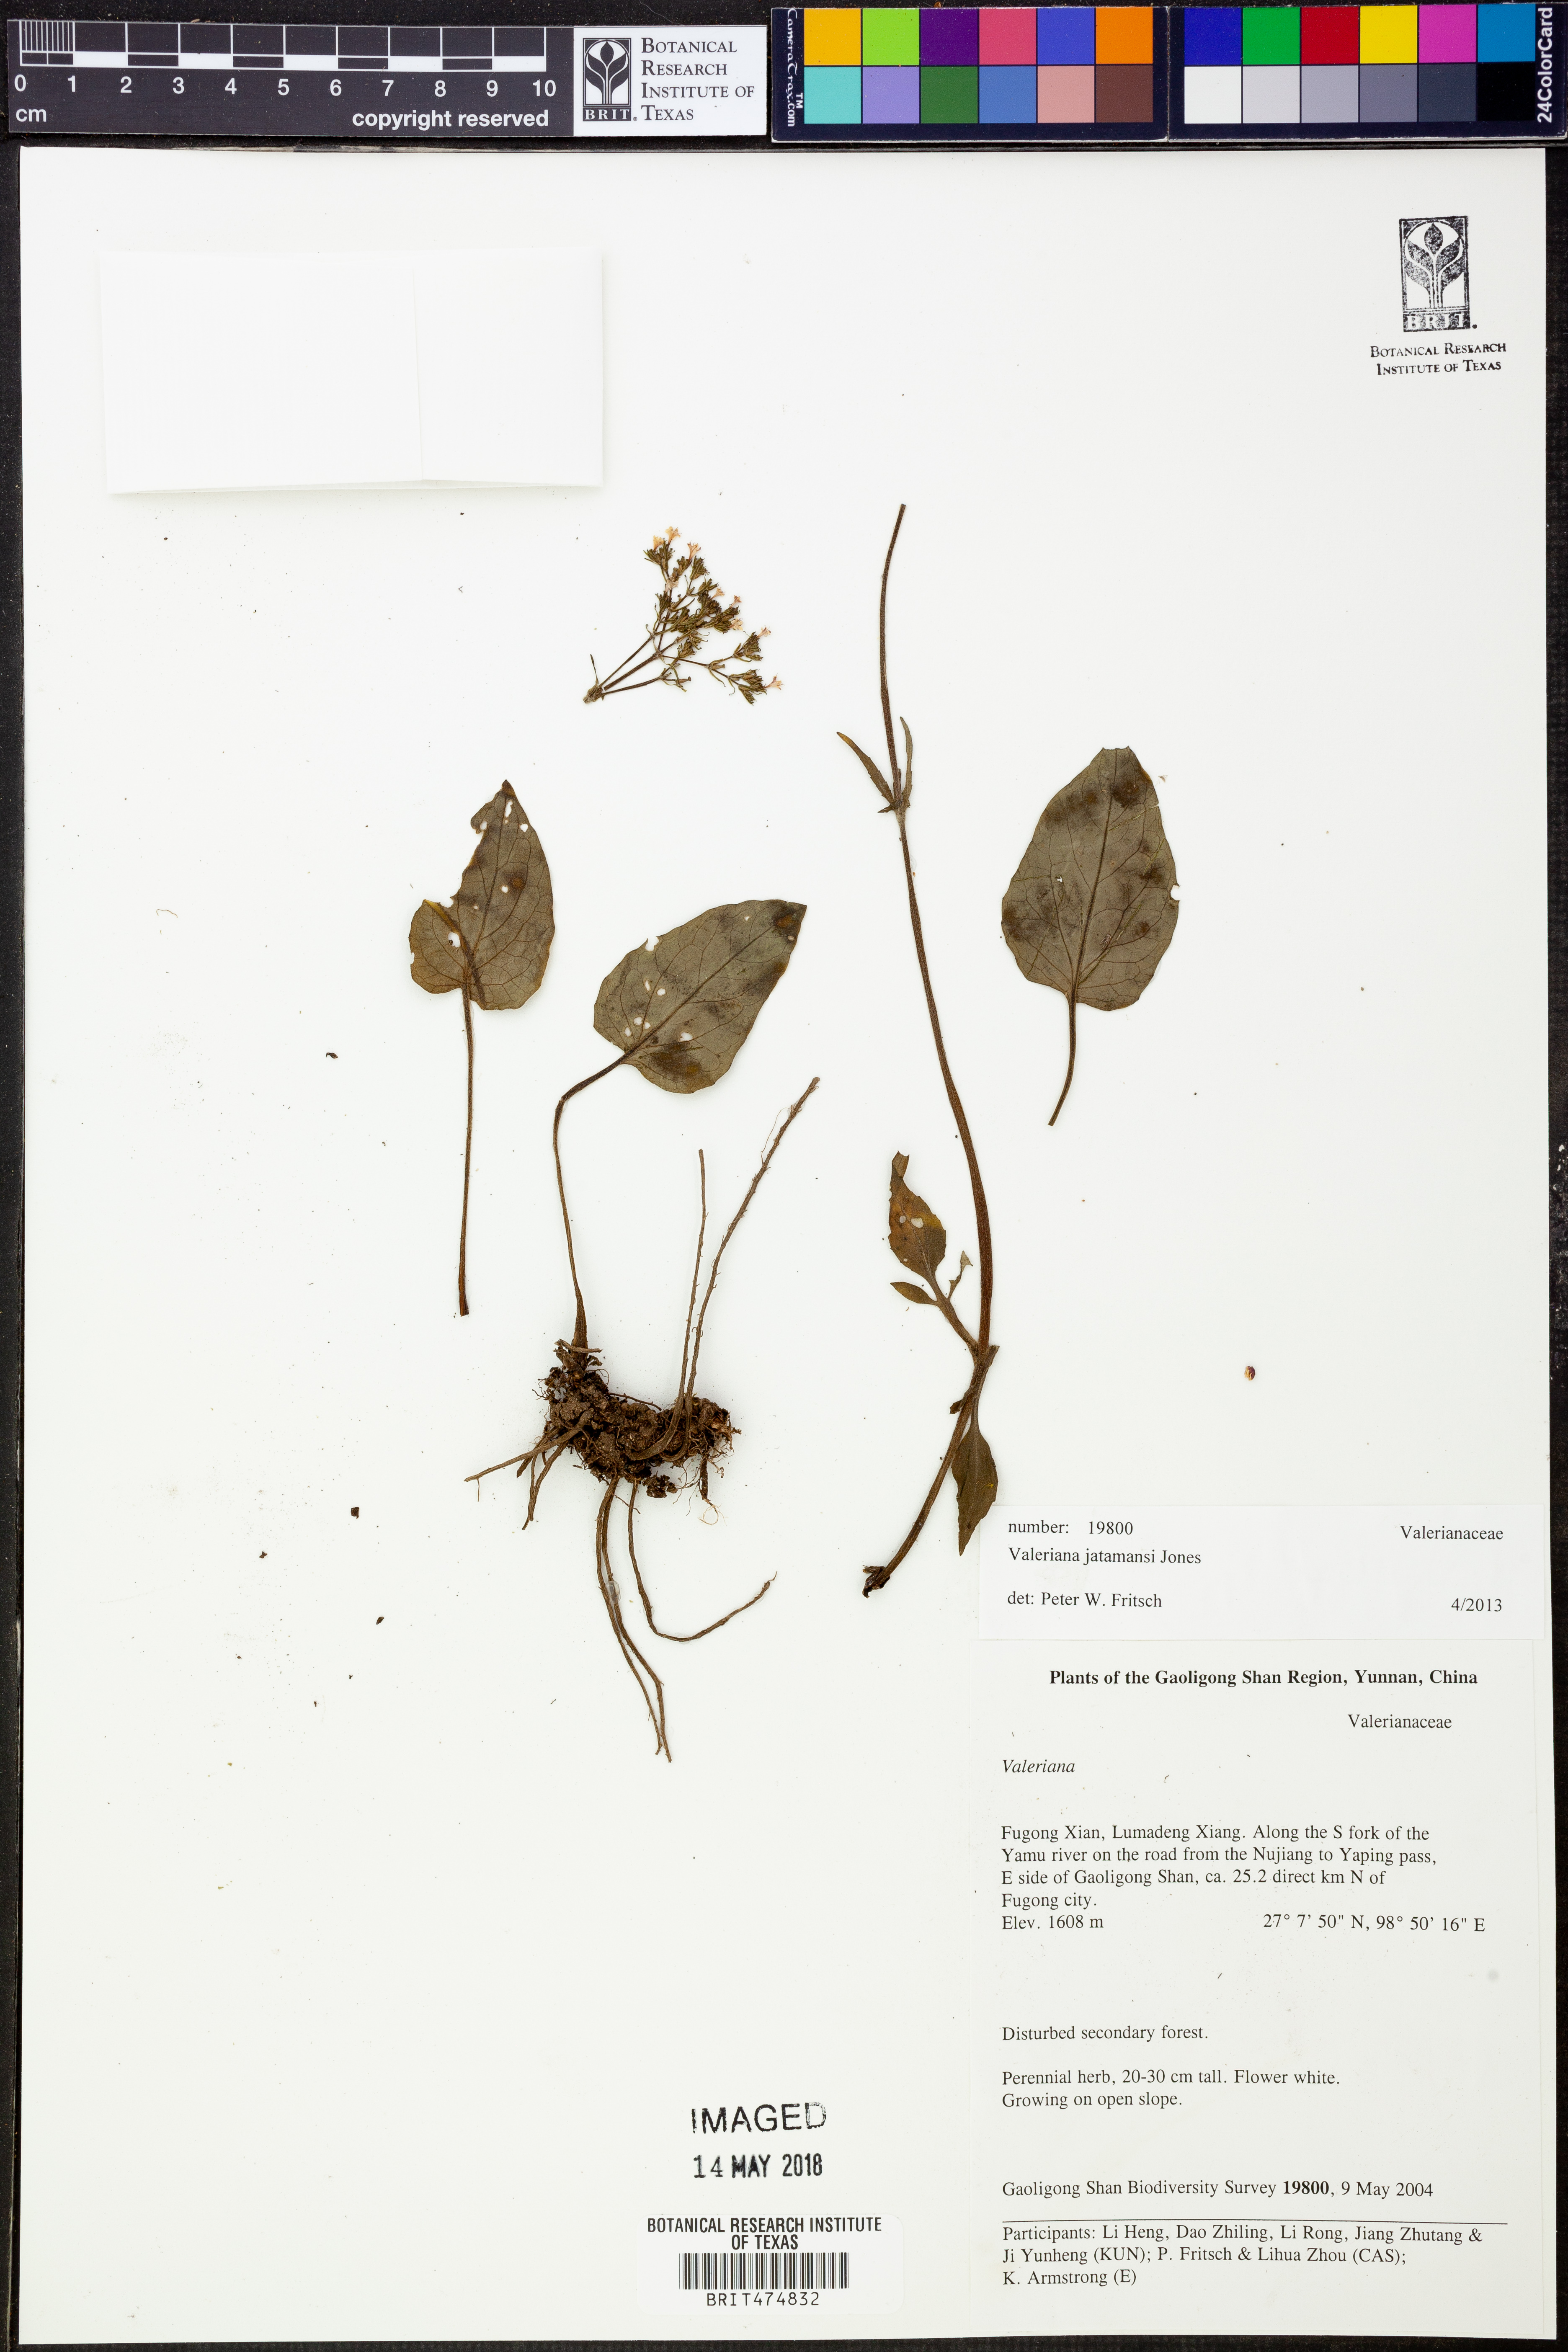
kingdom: Plantae
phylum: Tracheophyta
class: Magnoliopsida
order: Dipsacales
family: Caprifoliaceae
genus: Valeriana
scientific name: Valeriana jatamansi
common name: Indian valerian
